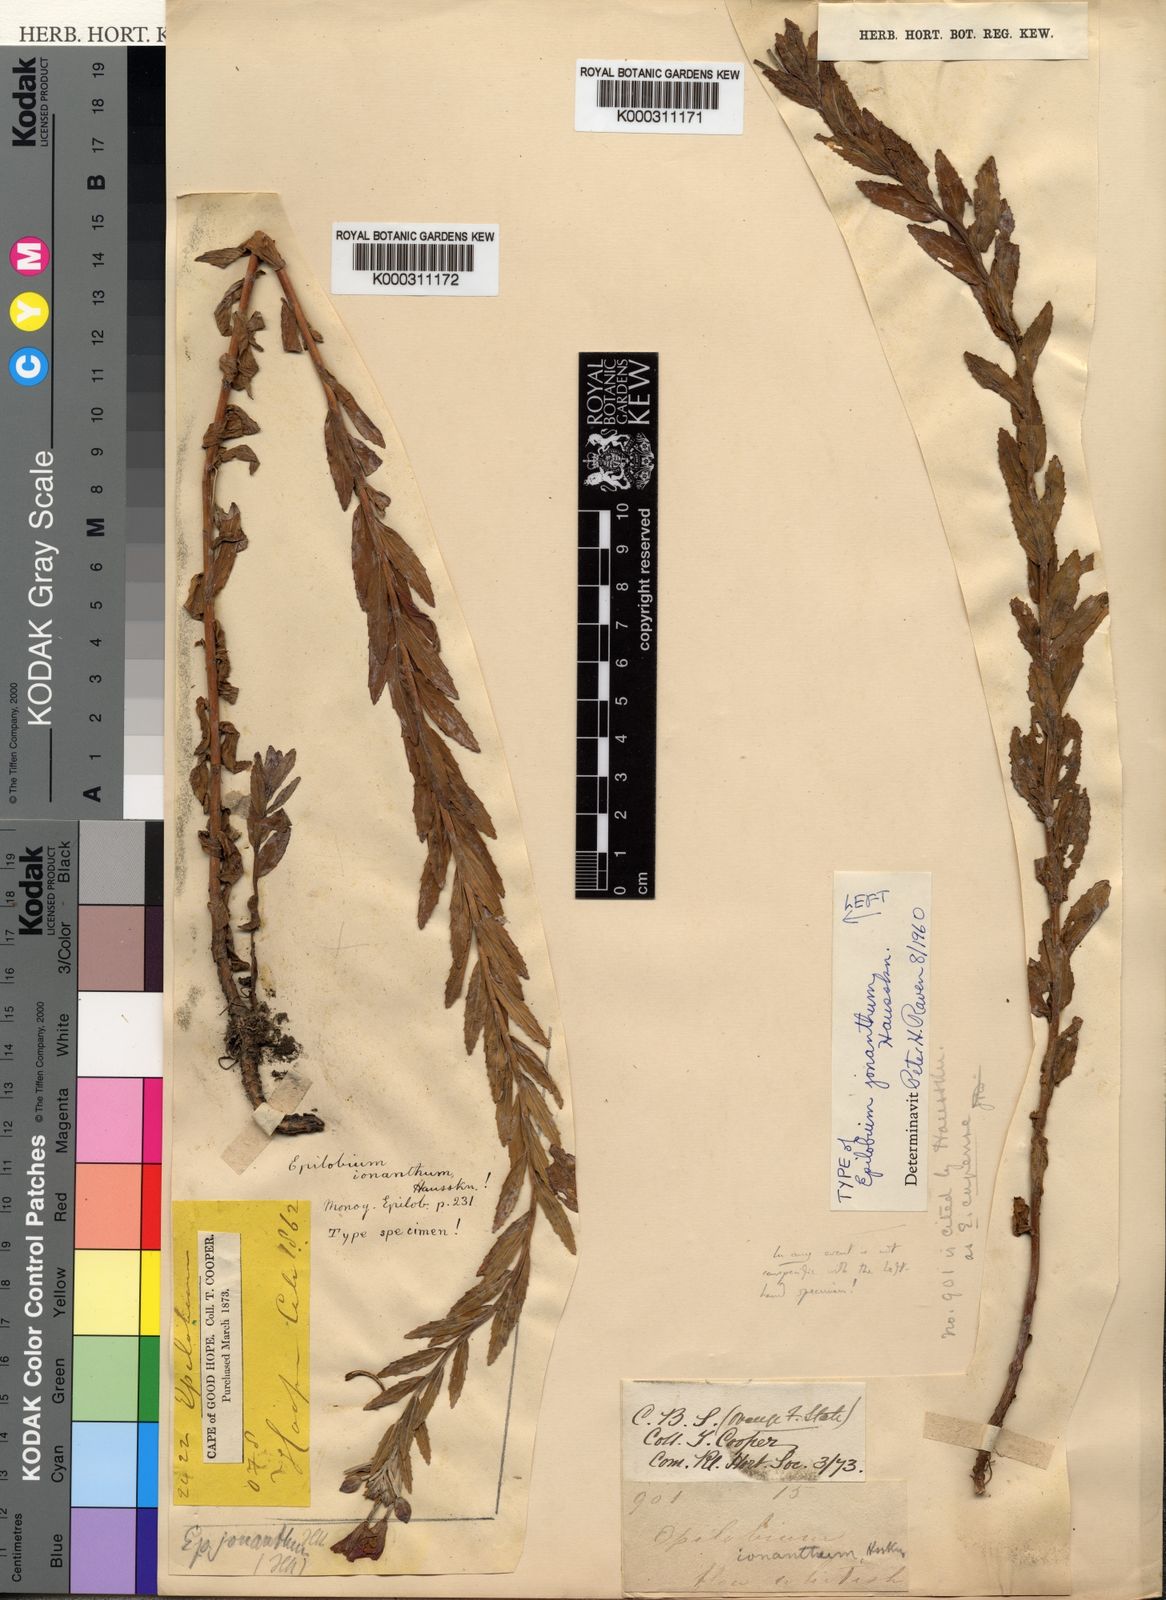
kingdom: Plantae
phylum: Tracheophyta
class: Magnoliopsida
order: Myrtales
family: Onagraceae
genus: Epilobium
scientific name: Epilobium
